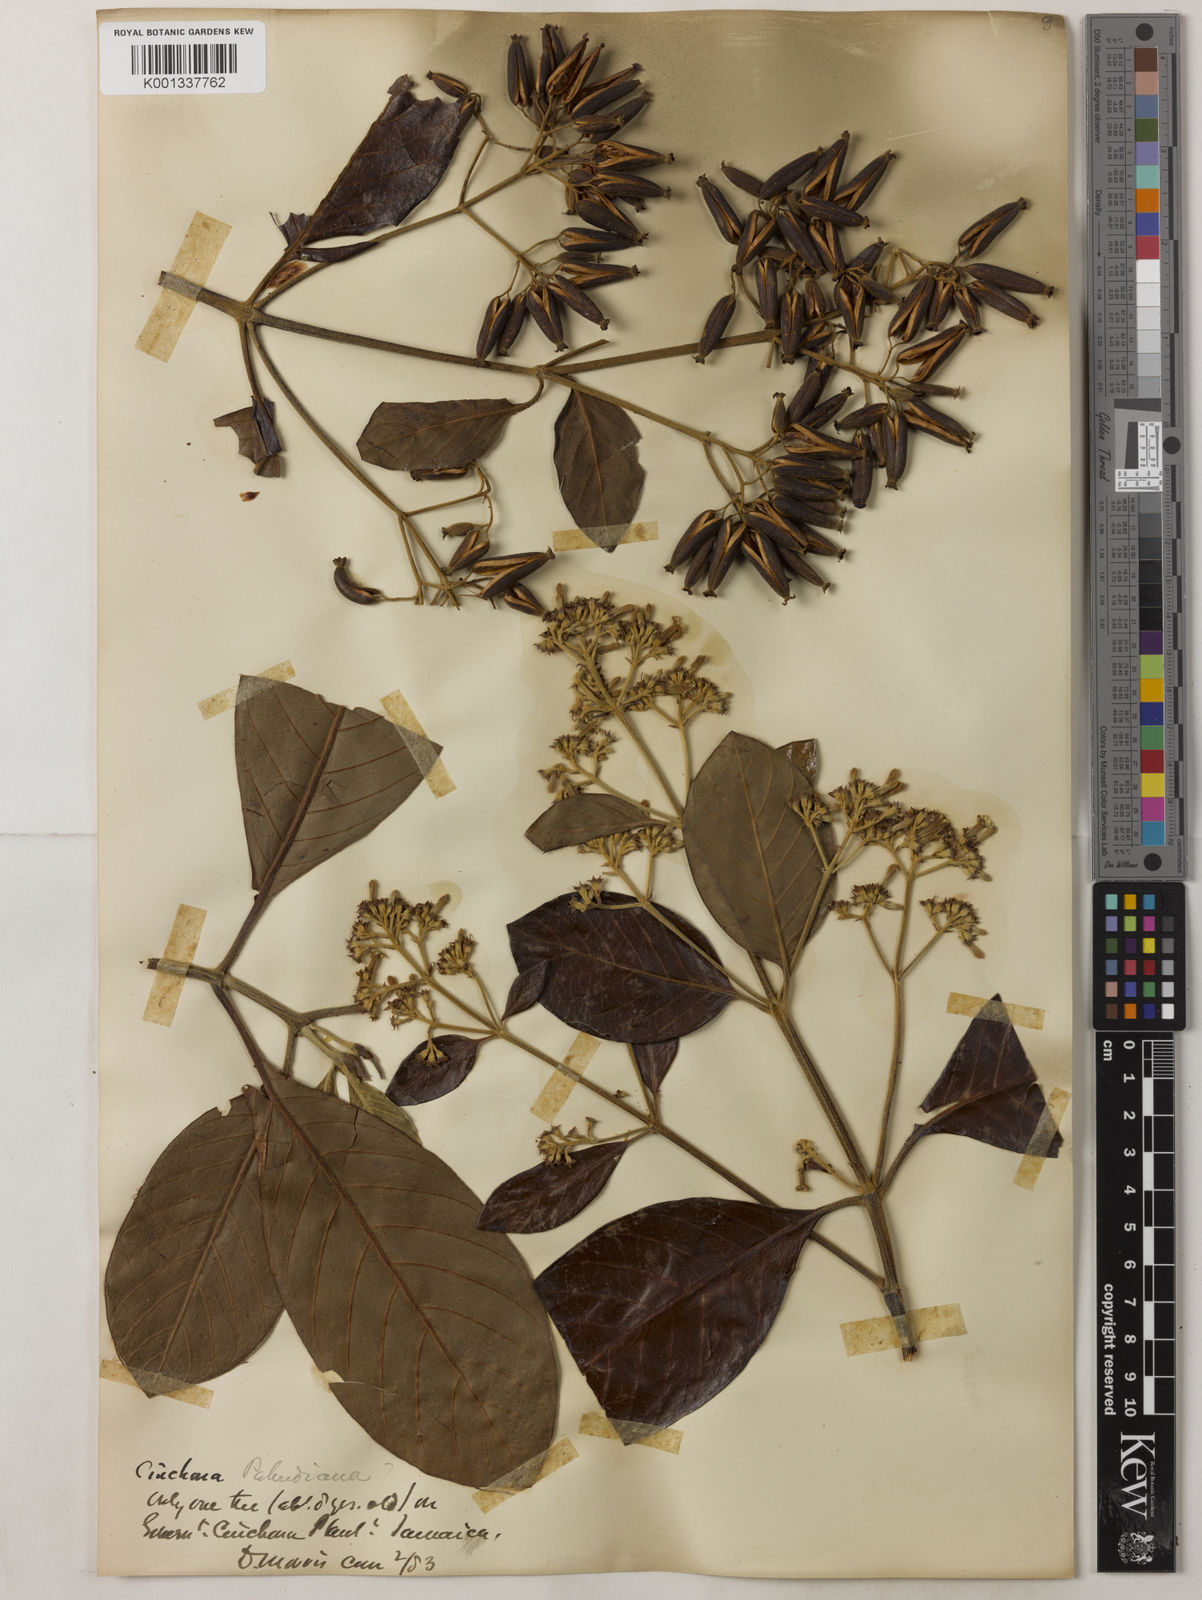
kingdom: Plantae
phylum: Tracheophyta
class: Magnoliopsida
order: Gentianales
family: Rubiaceae
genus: Cinchona
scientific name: Cinchona calisaya
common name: Ledgerbark
